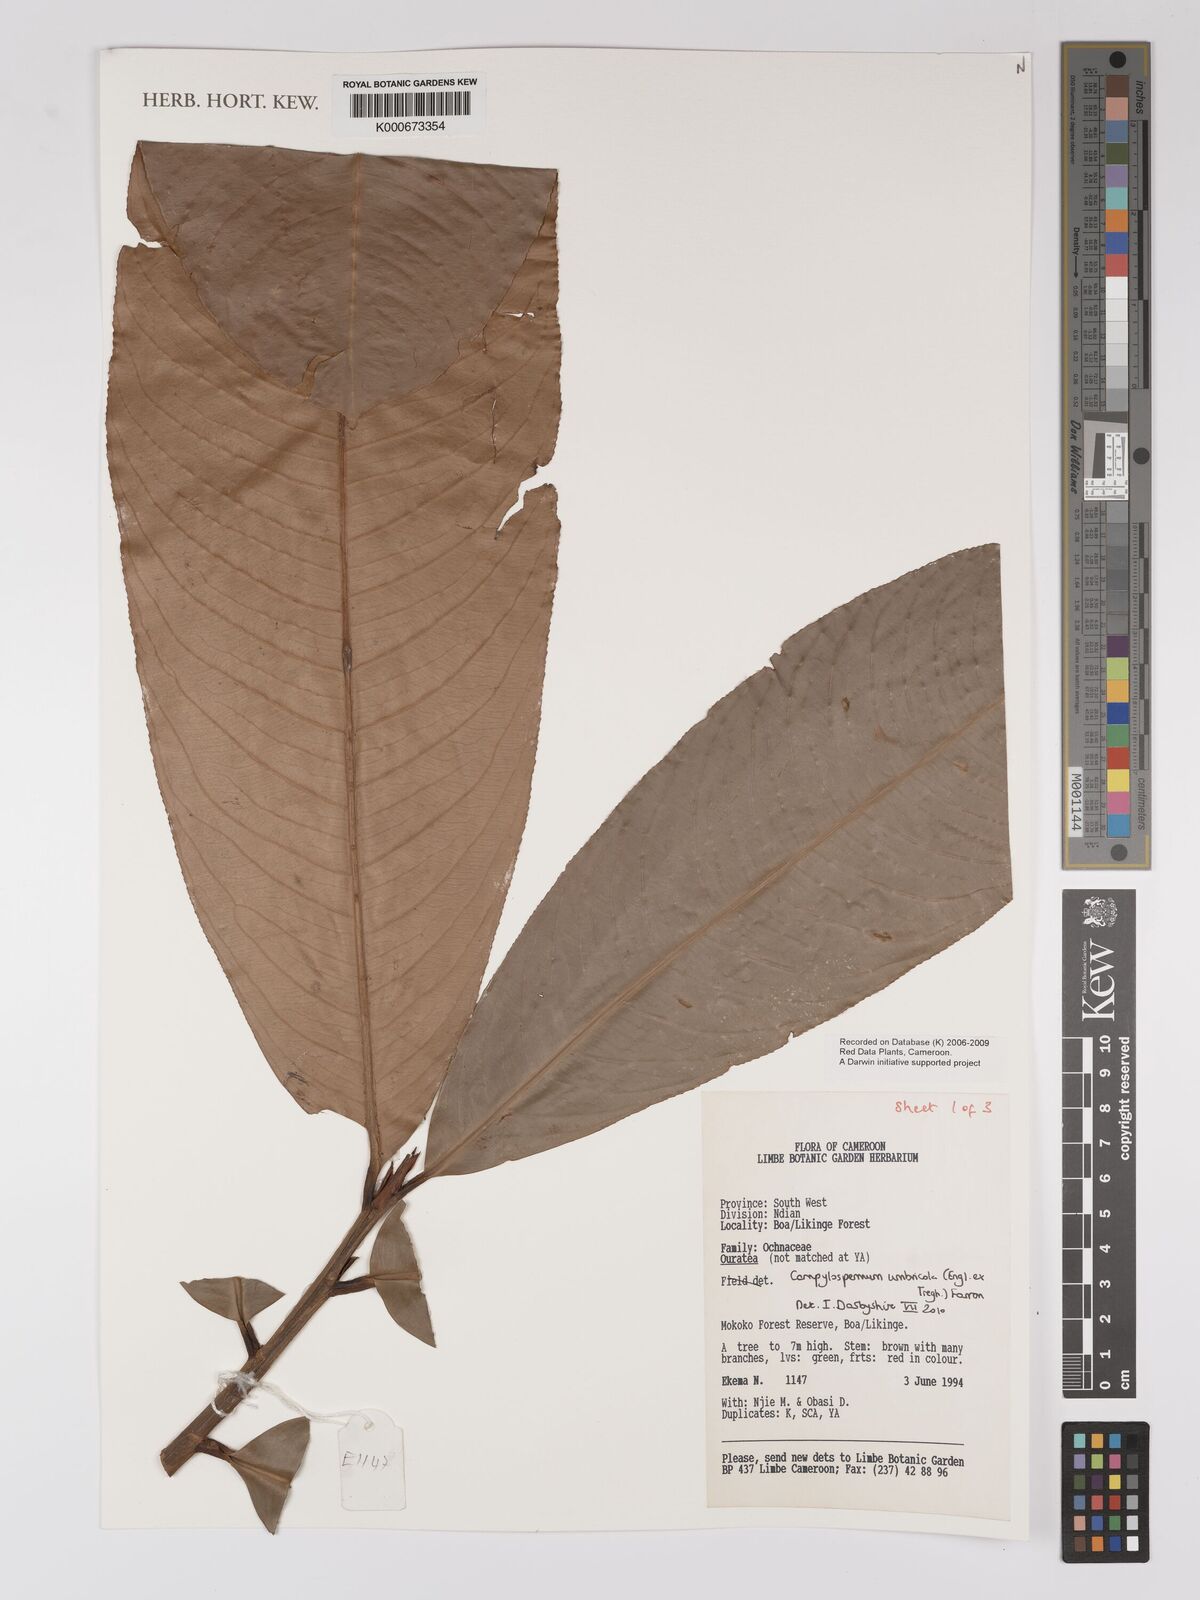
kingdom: Plantae
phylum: Tracheophyta
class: Magnoliopsida
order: Malpighiales
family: Ochnaceae
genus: Campylospermum
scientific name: Campylospermum umbricola
